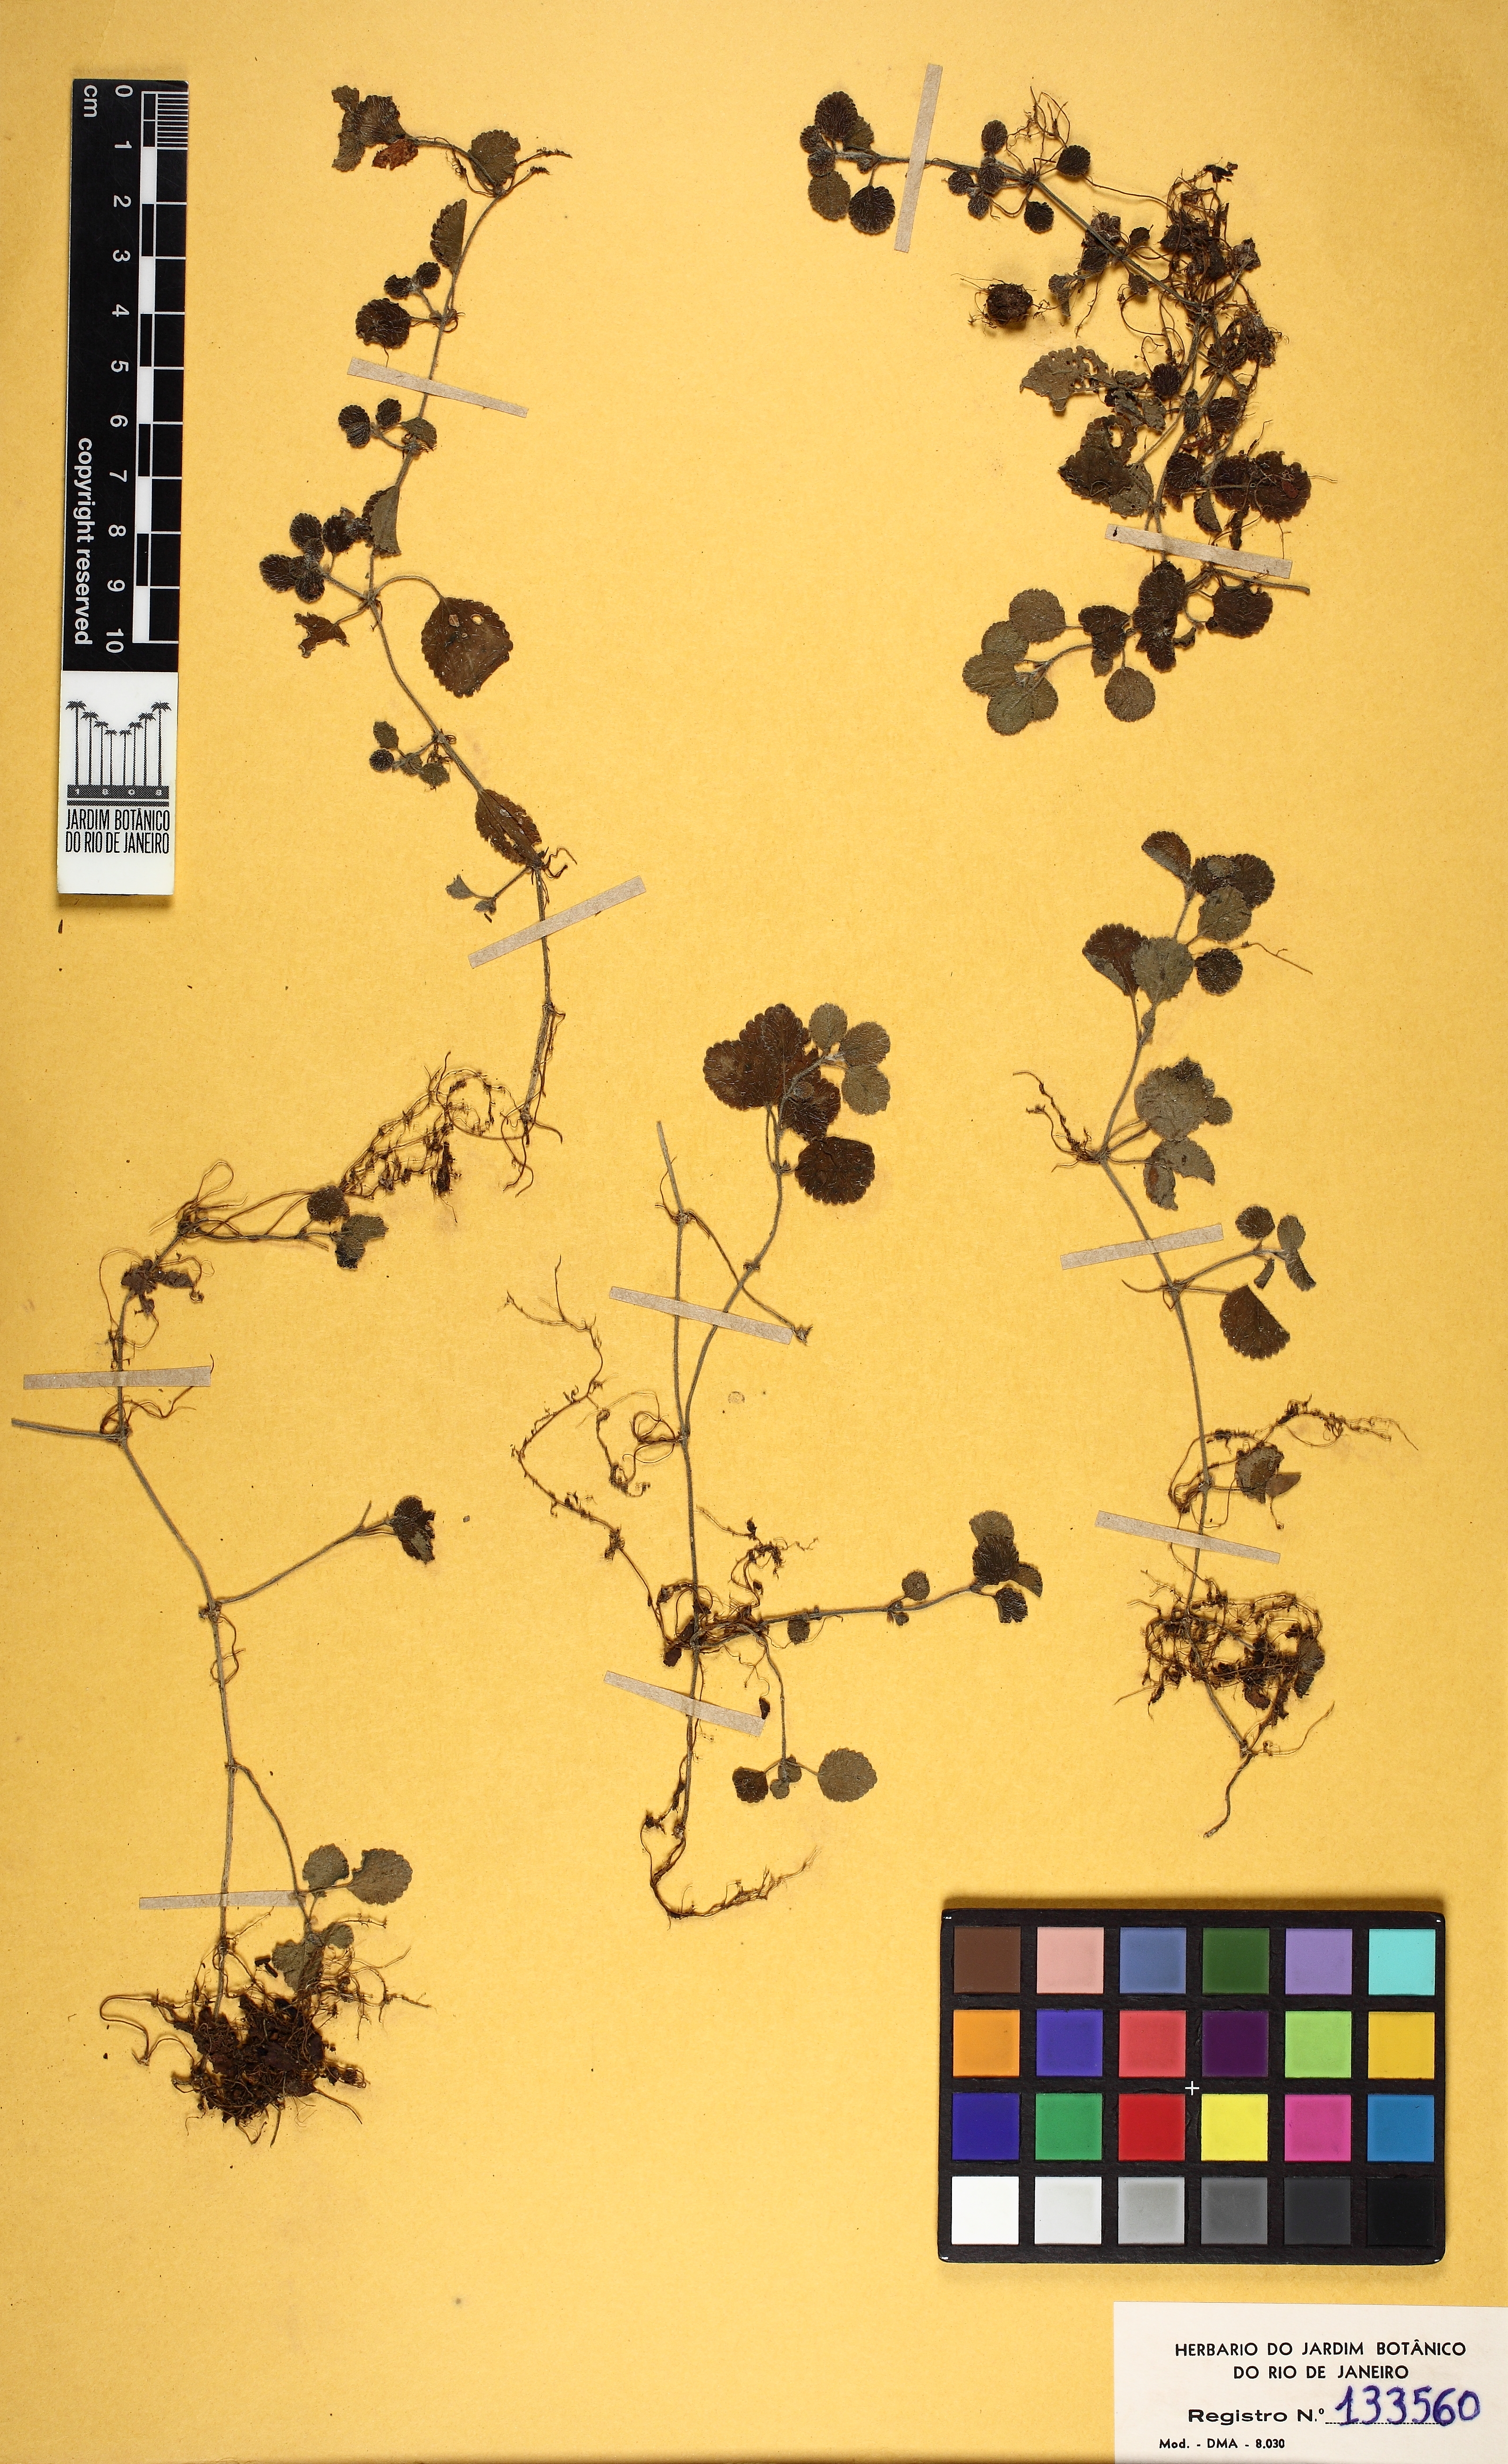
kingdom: Plantae
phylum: Tracheophyta
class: Magnoliopsida
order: Rosales
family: Urticaceae
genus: Pilea
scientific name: Pilea nummulariifolia
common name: Creeping-charlie
